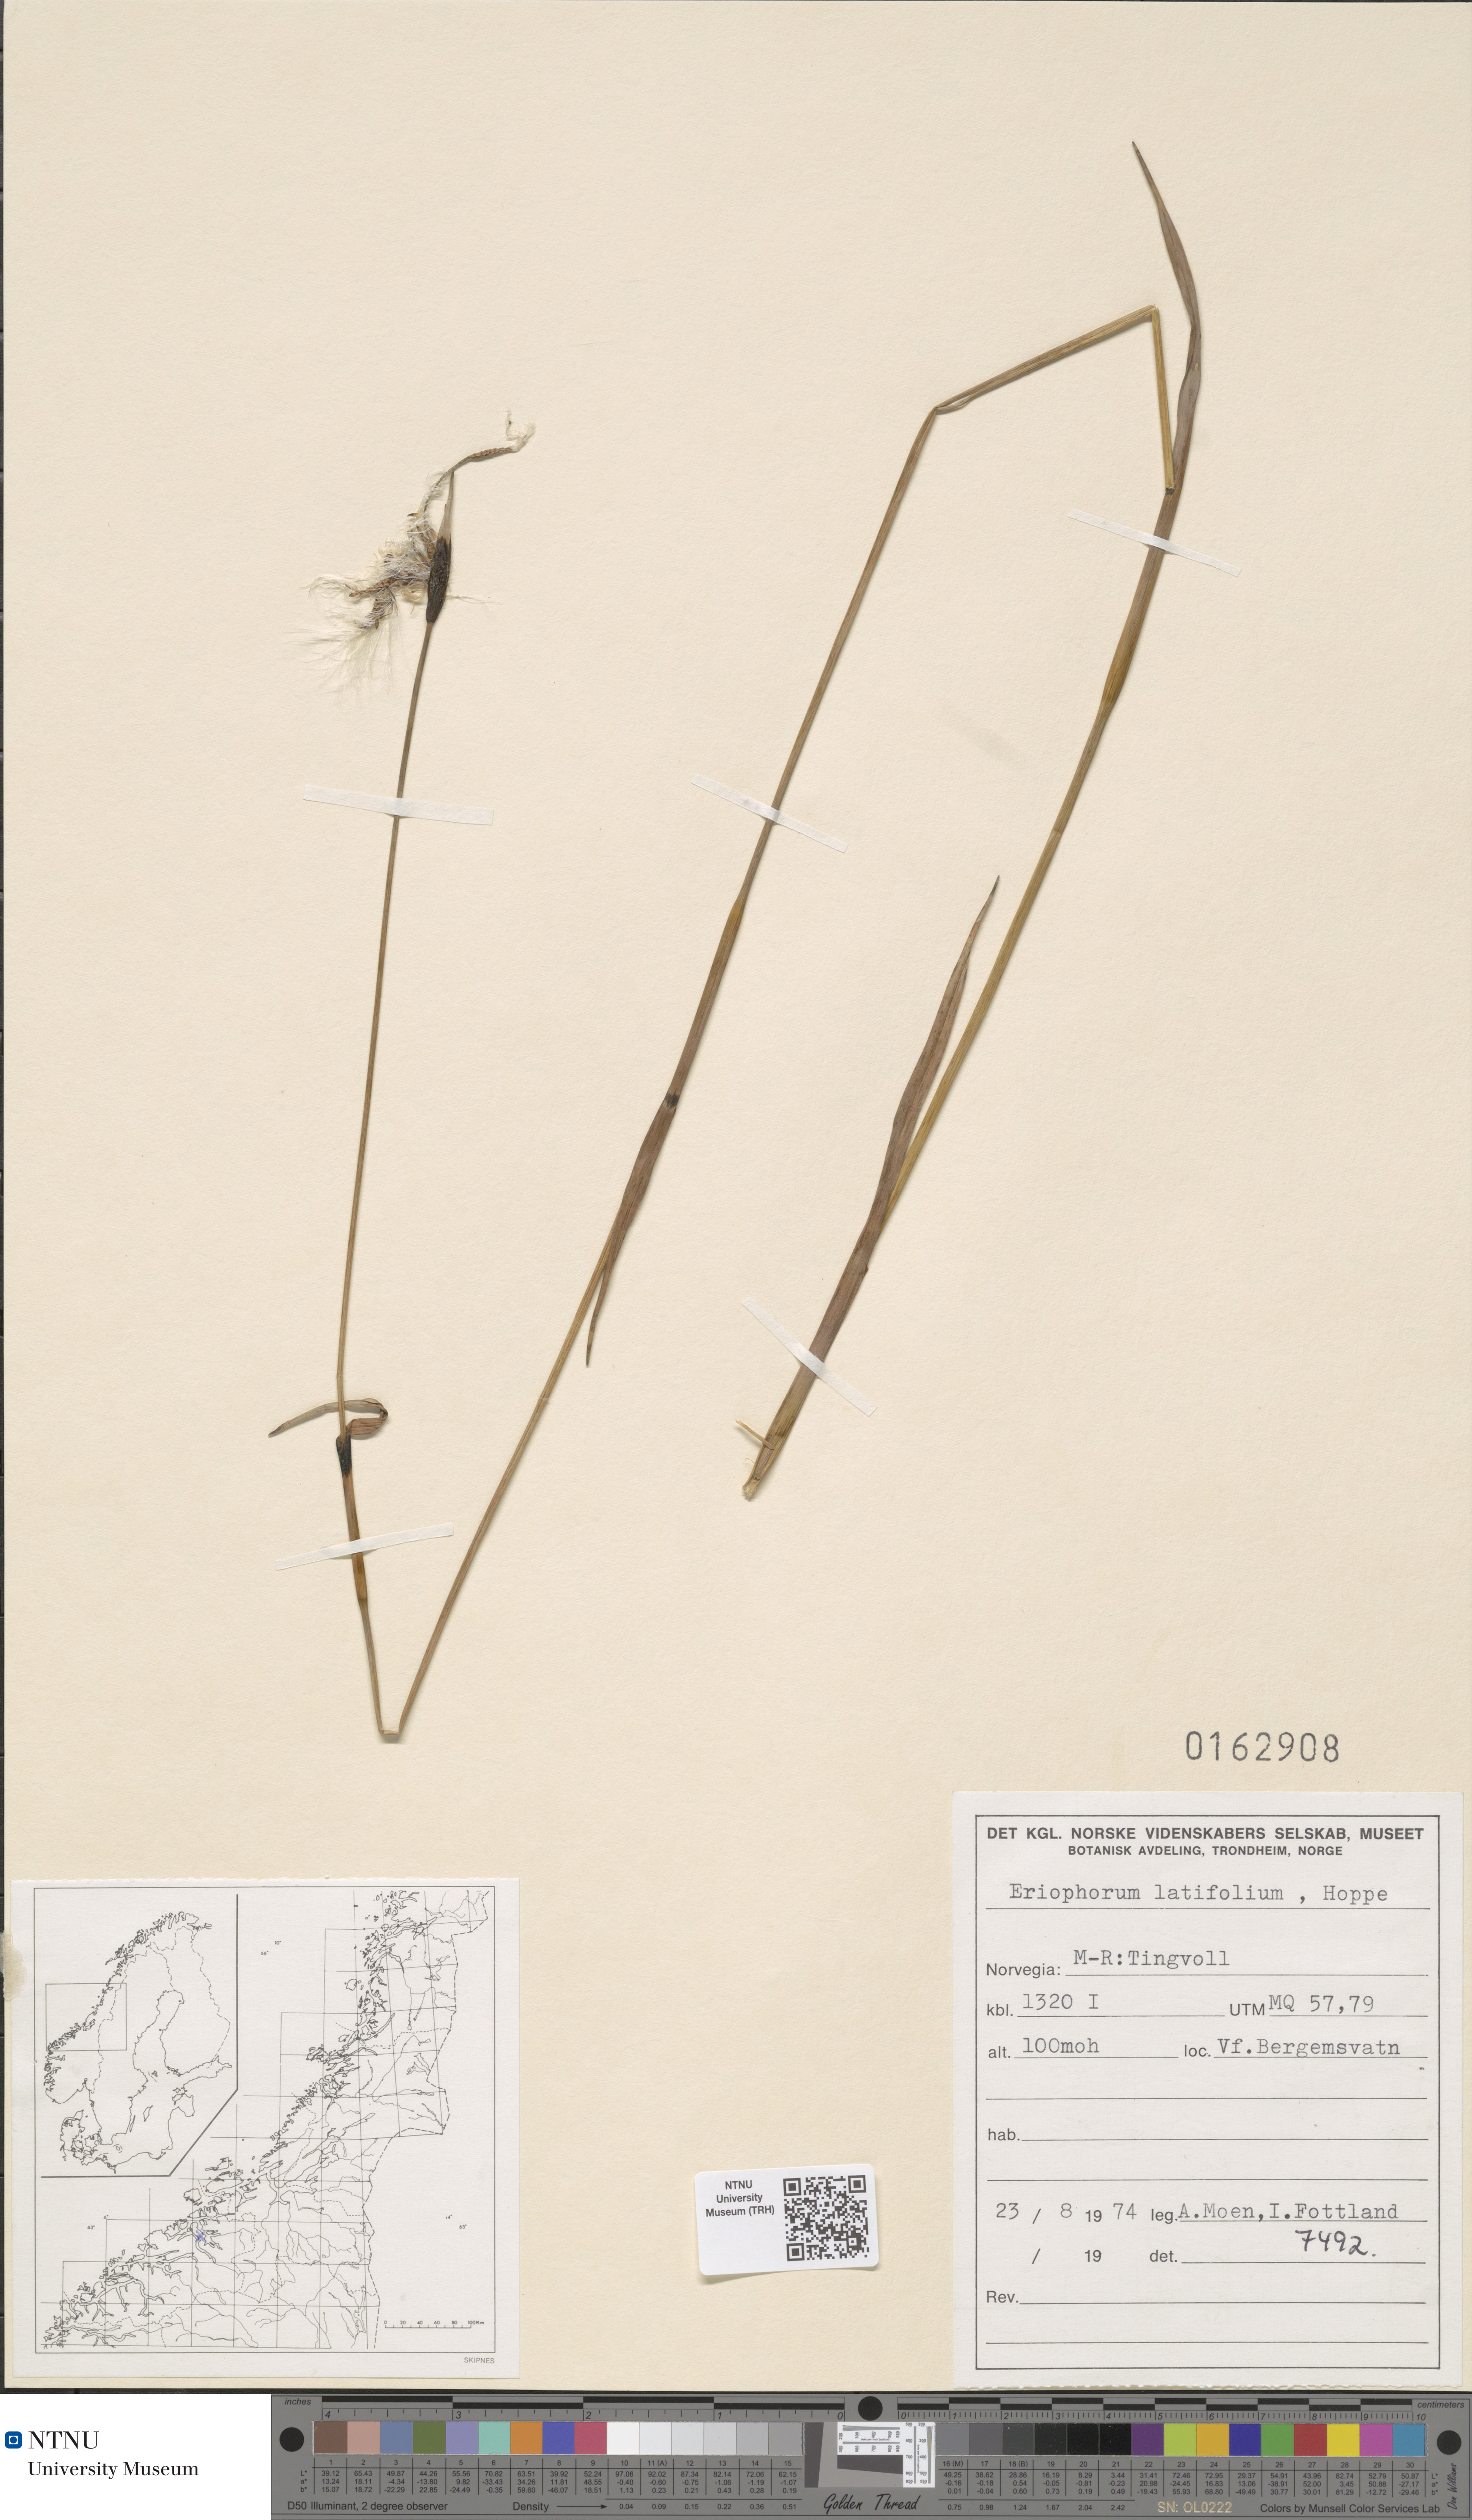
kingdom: Plantae
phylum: Tracheophyta
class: Liliopsida
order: Poales
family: Cyperaceae
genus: Eriophorum
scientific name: Eriophorum latifolium
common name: Broad-leaved cottongrass
